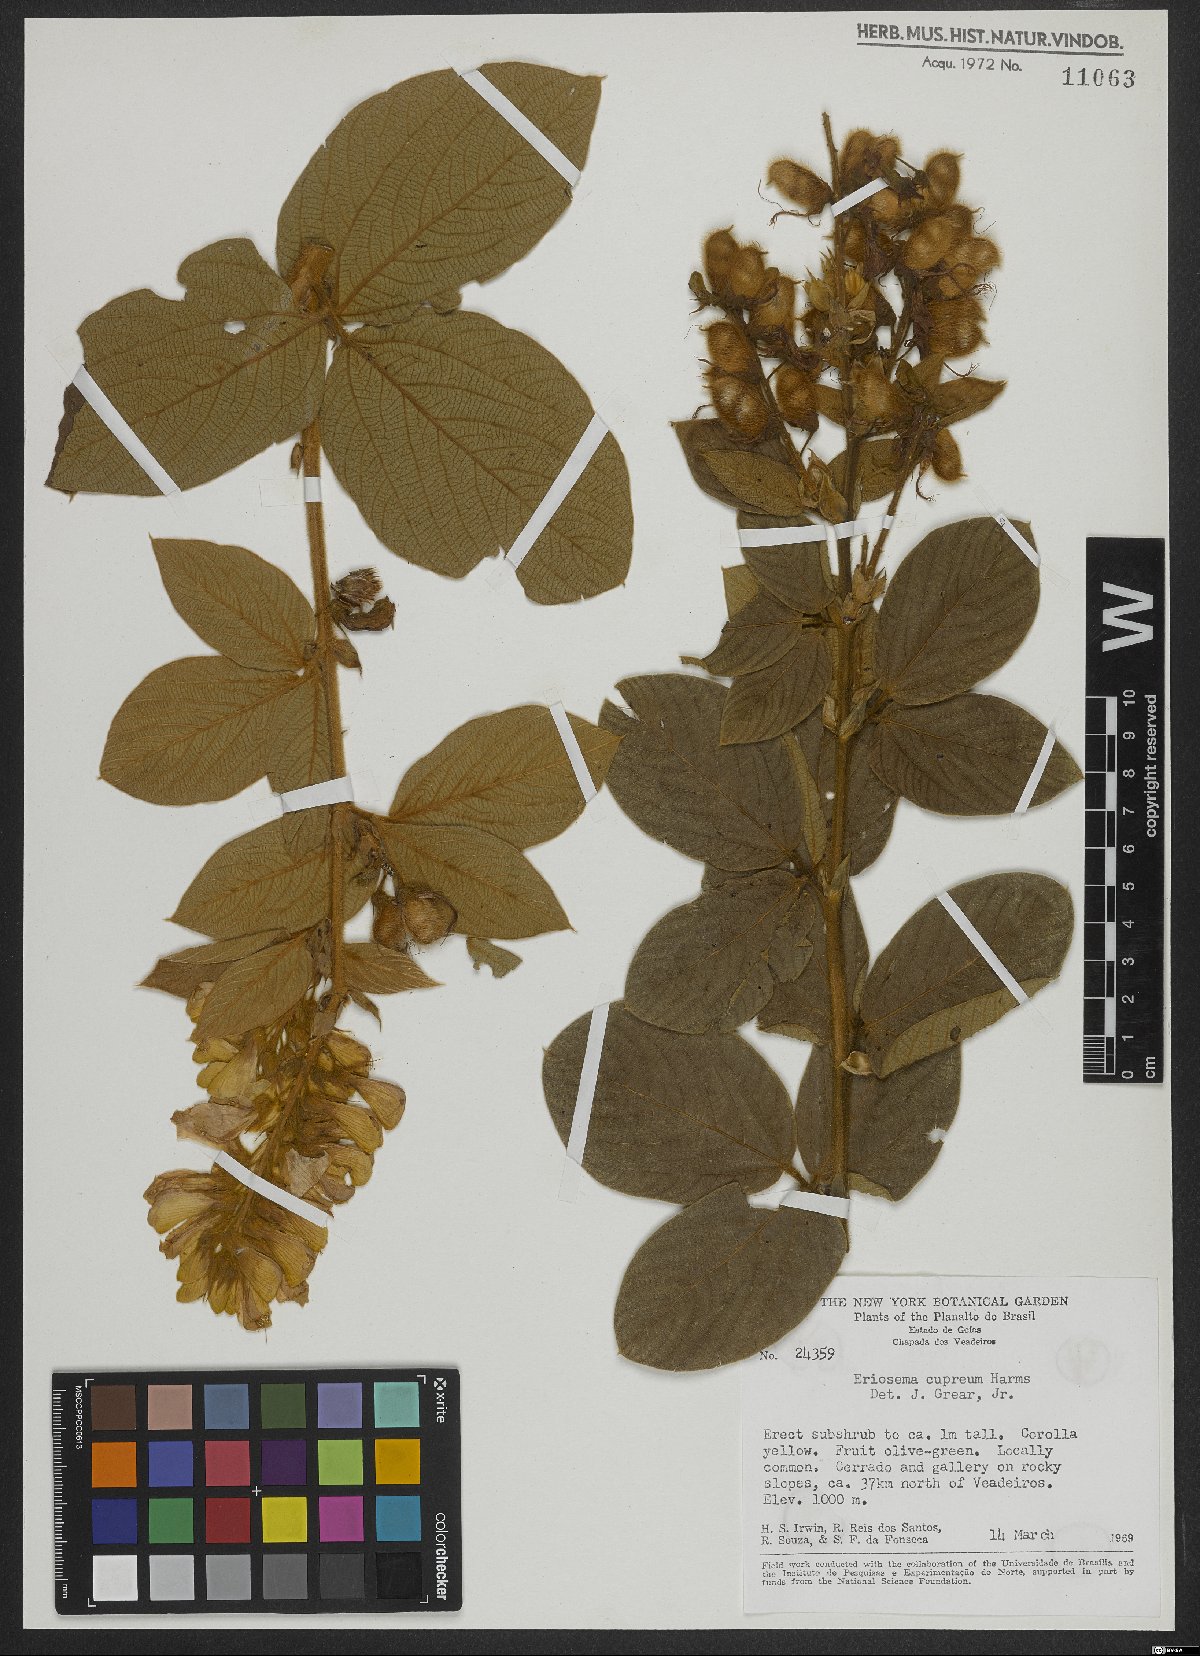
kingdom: Plantae
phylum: Tracheophyta
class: Magnoliopsida
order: Fabales
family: Fabaceae
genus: Eriosema
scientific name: Eriosema cupreum
